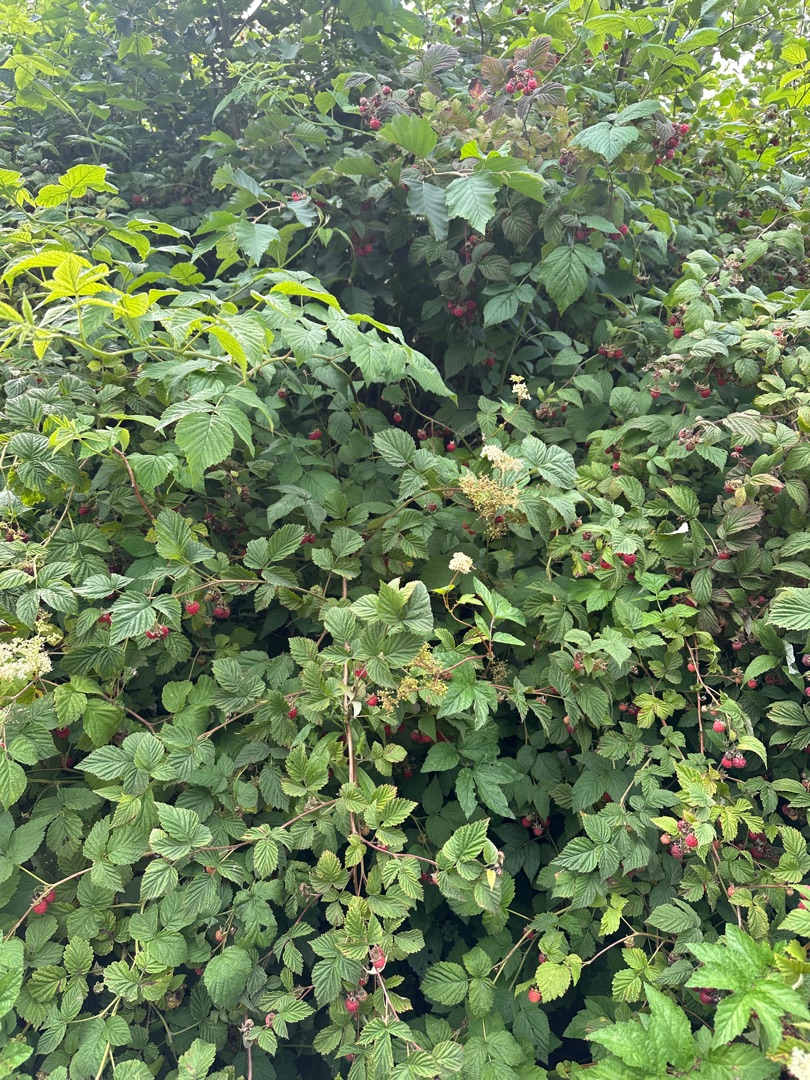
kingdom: Plantae
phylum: Tracheophyta
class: Magnoliopsida
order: Rosales
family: Rosaceae
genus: Rubus
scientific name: Rubus idaeus
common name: Hindbær
